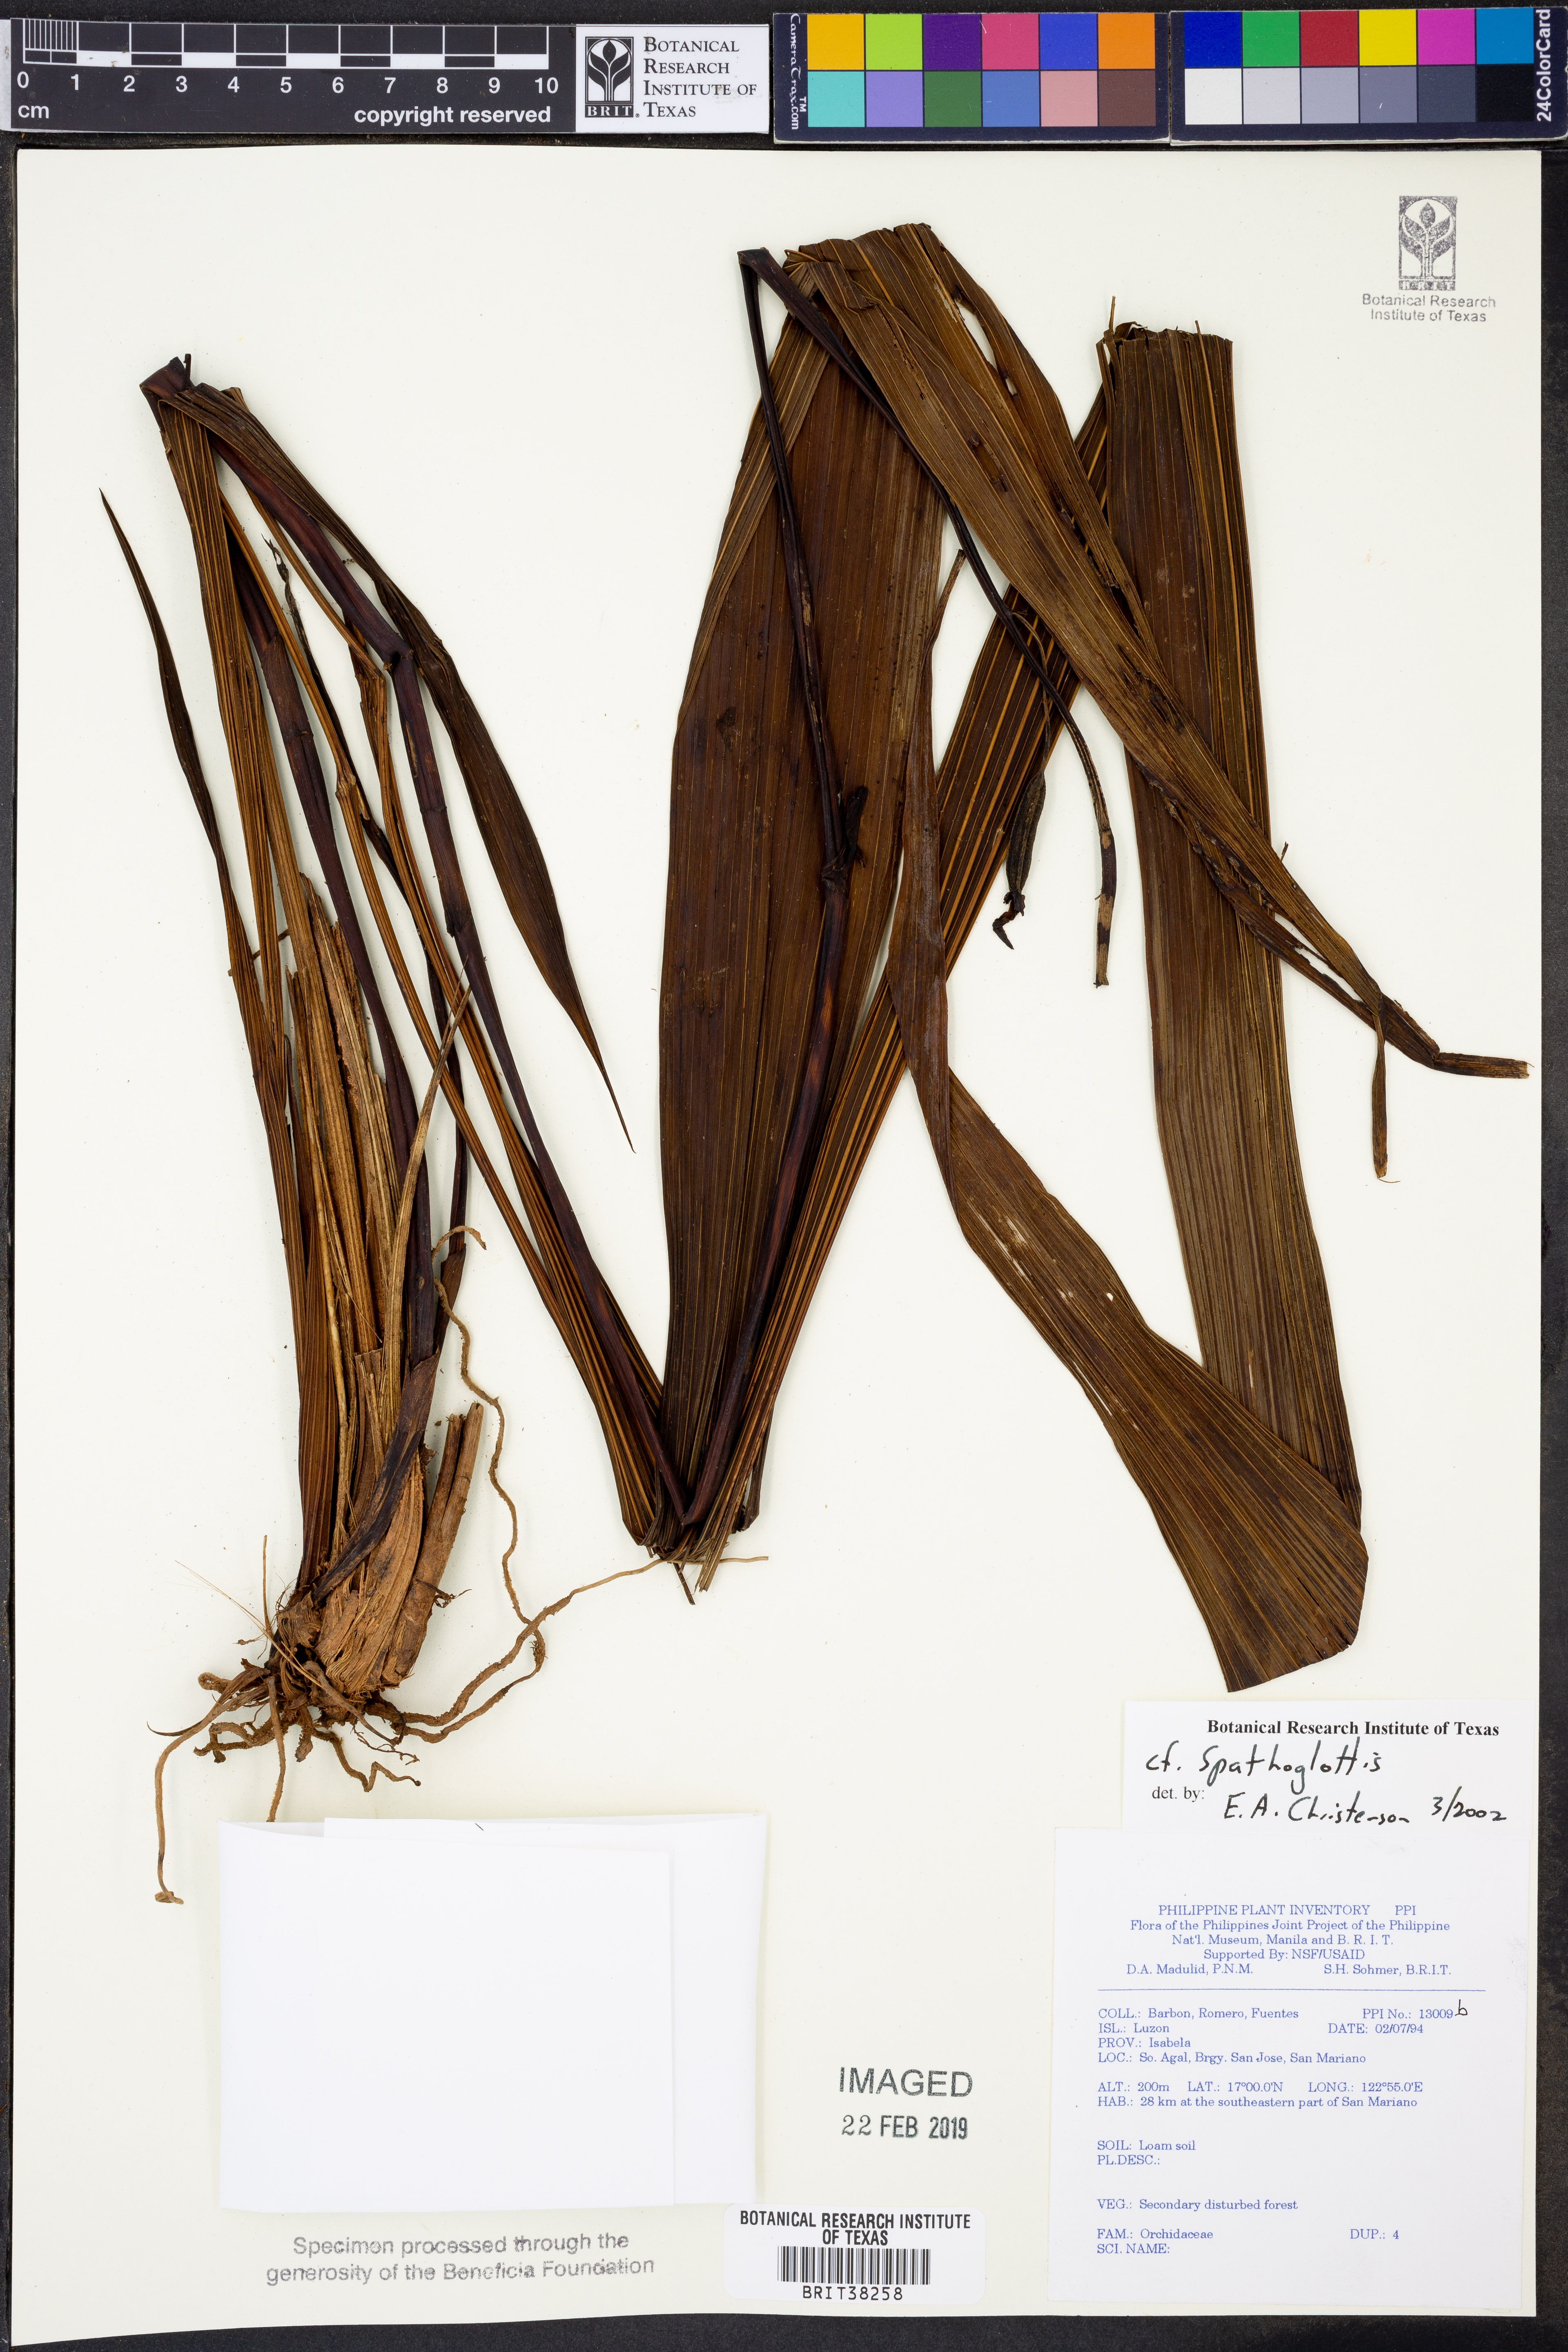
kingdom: Plantae
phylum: Tracheophyta
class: Liliopsida
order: Asparagales
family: Orchidaceae
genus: Spathoglottis
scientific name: Spathoglottis
